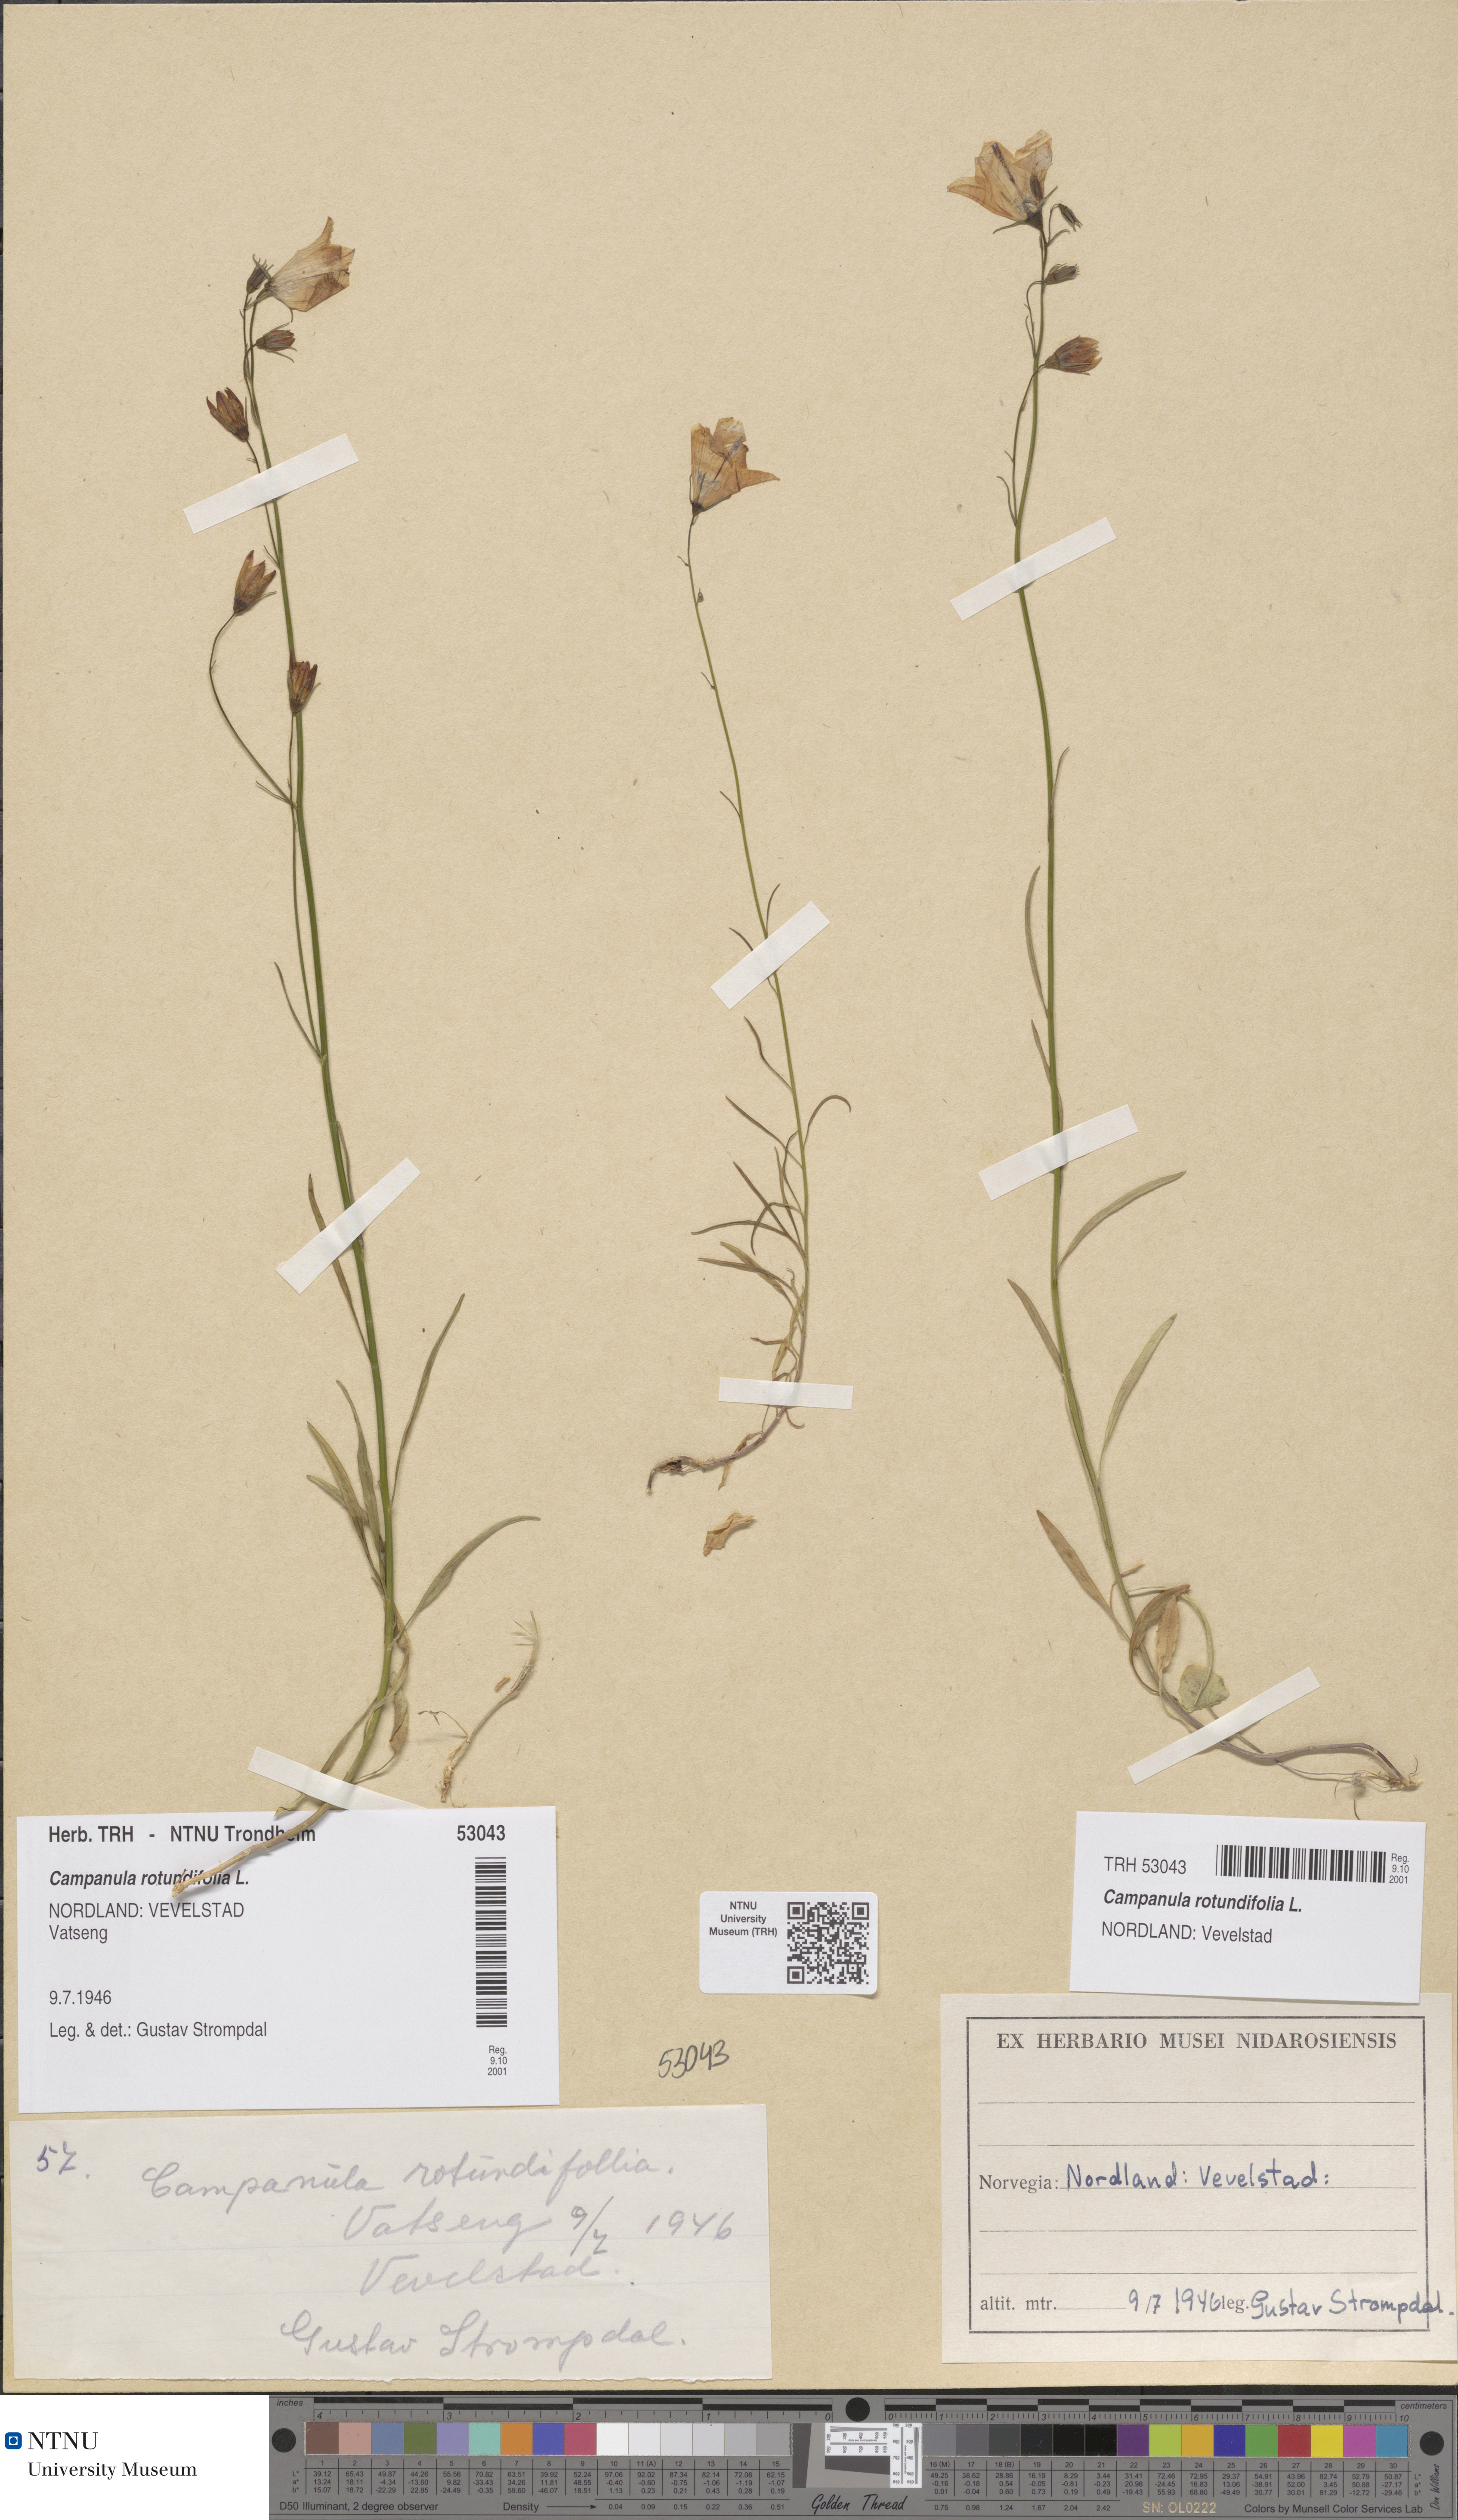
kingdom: Plantae
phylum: Tracheophyta
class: Magnoliopsida
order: Asterales
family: Campanulaceae
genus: Campanula
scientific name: Campanula rotundifolia
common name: Harebell
